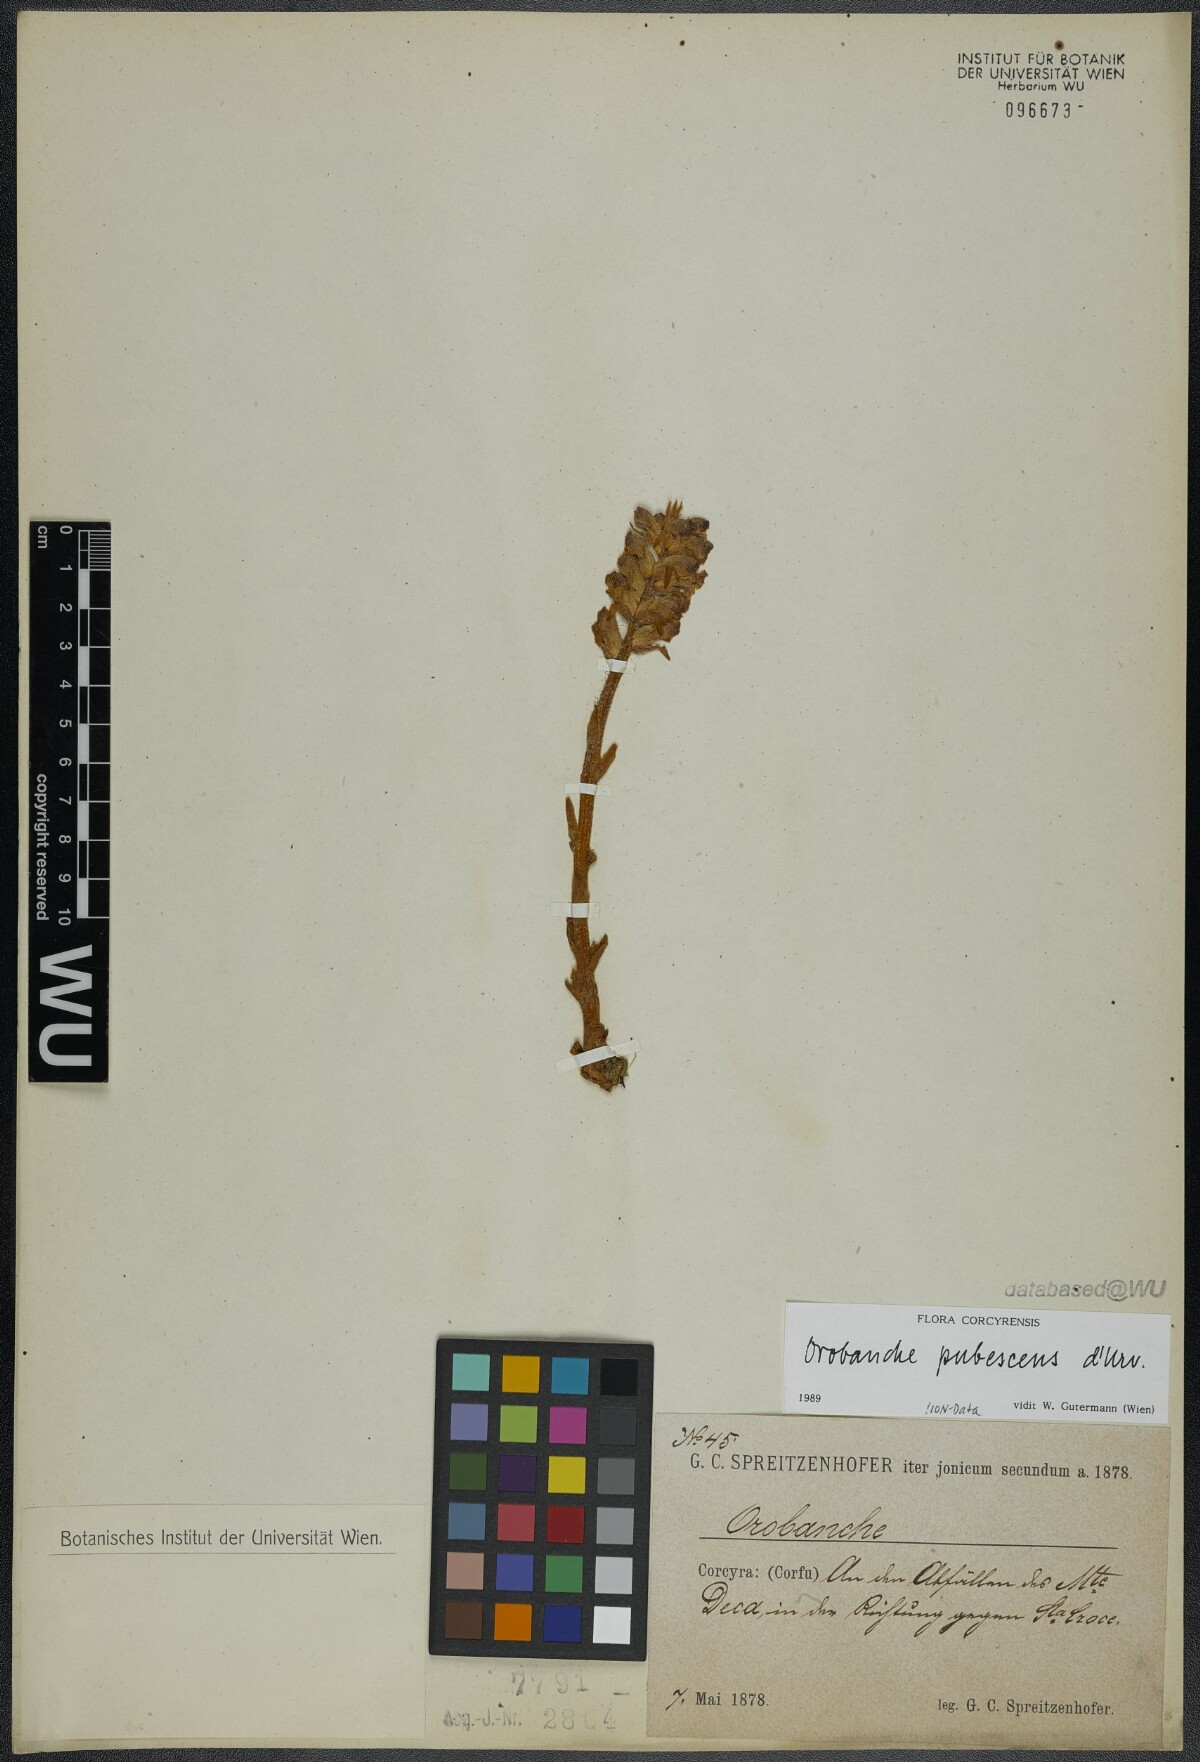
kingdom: Plantae
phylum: Tracheophyta
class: Magnoliopsida
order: Lamiales
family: Orobanchaceae
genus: Orobanche
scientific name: Orobanche pubescens
